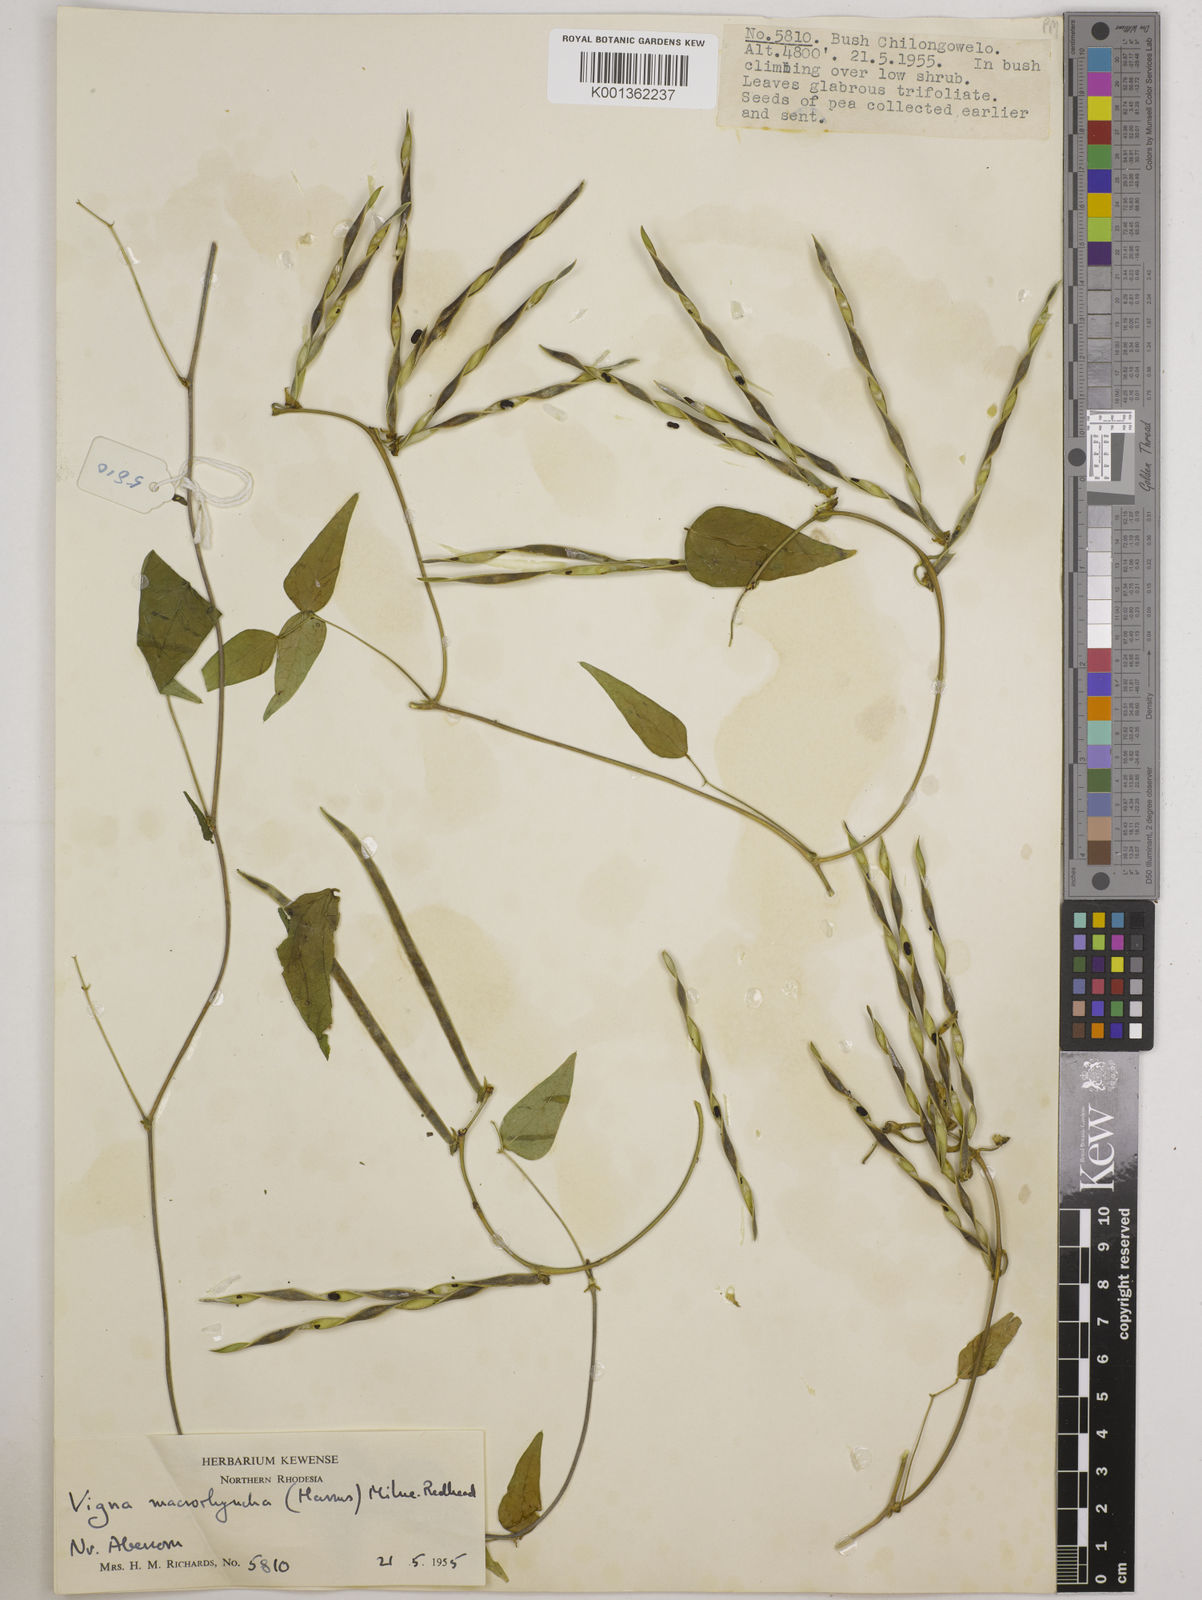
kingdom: Plantae
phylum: Tracheophyta
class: Magnoliopsida
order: Fabales
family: Fabaceae
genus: Wajira
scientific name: Wajira grahamiana
